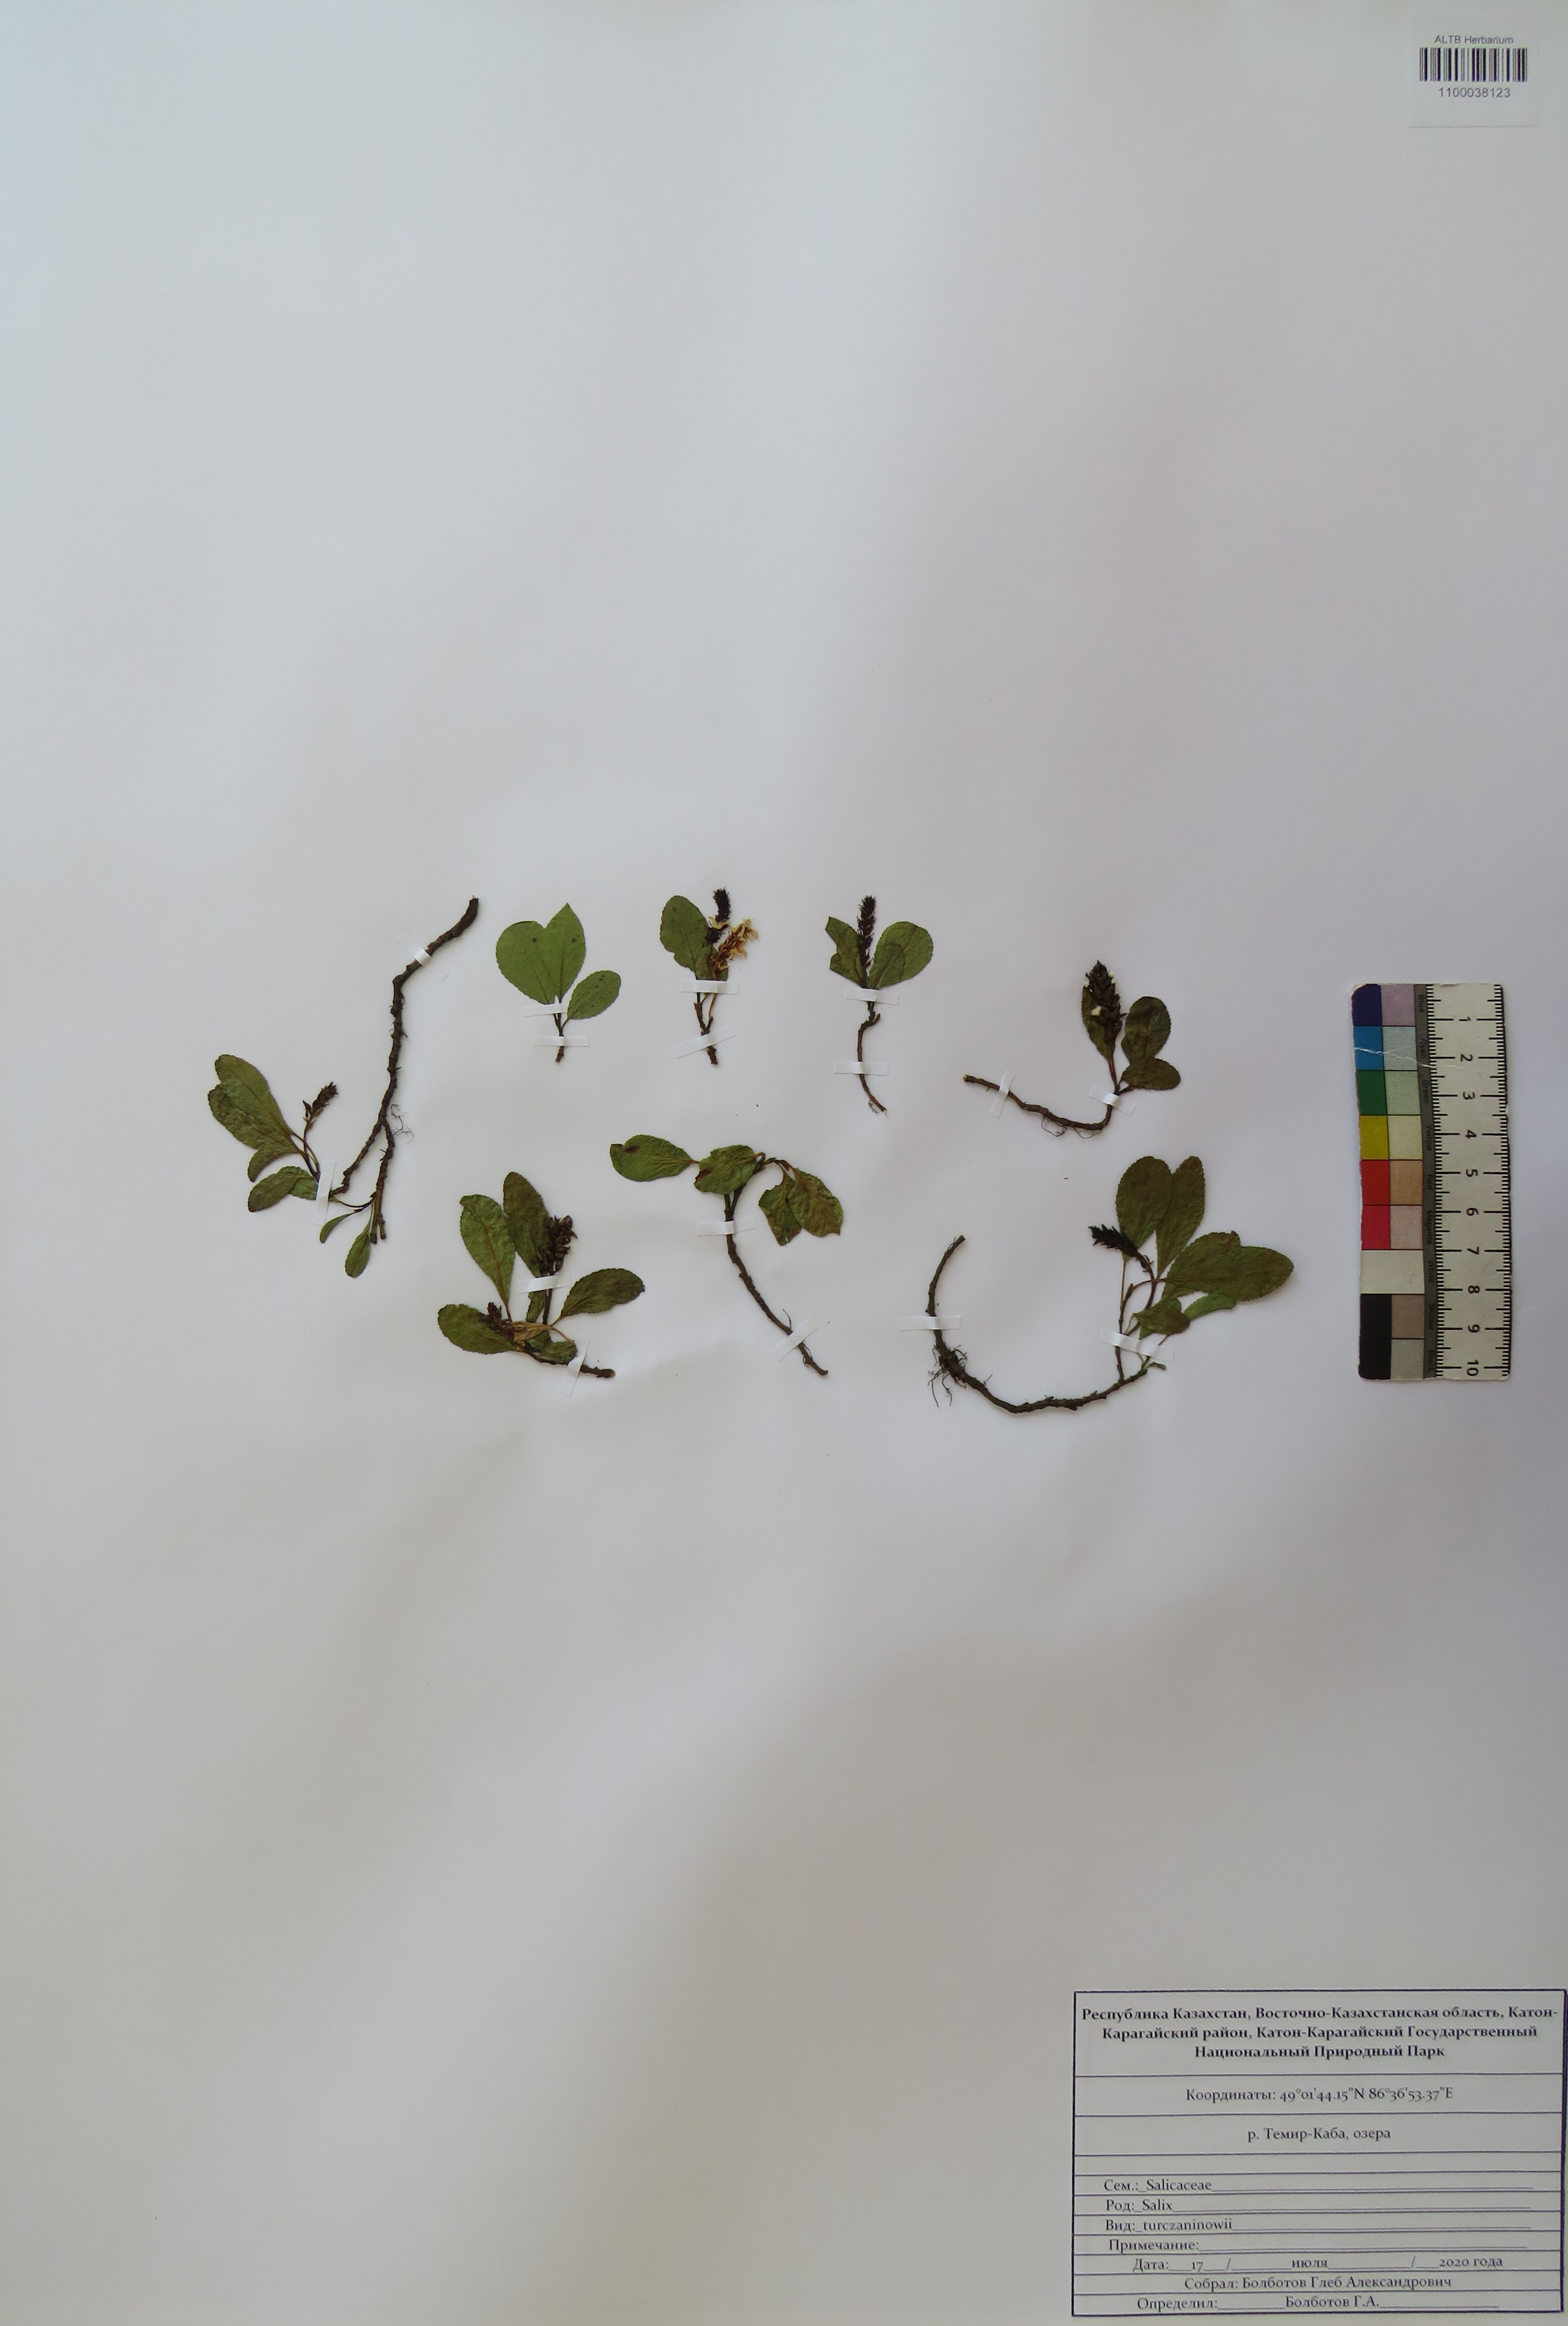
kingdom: Plantae
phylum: Tracheophyta
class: Magnoliopsida
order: Malpighiales
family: Salicaceae
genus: Salix
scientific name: Salix turczaninowii
